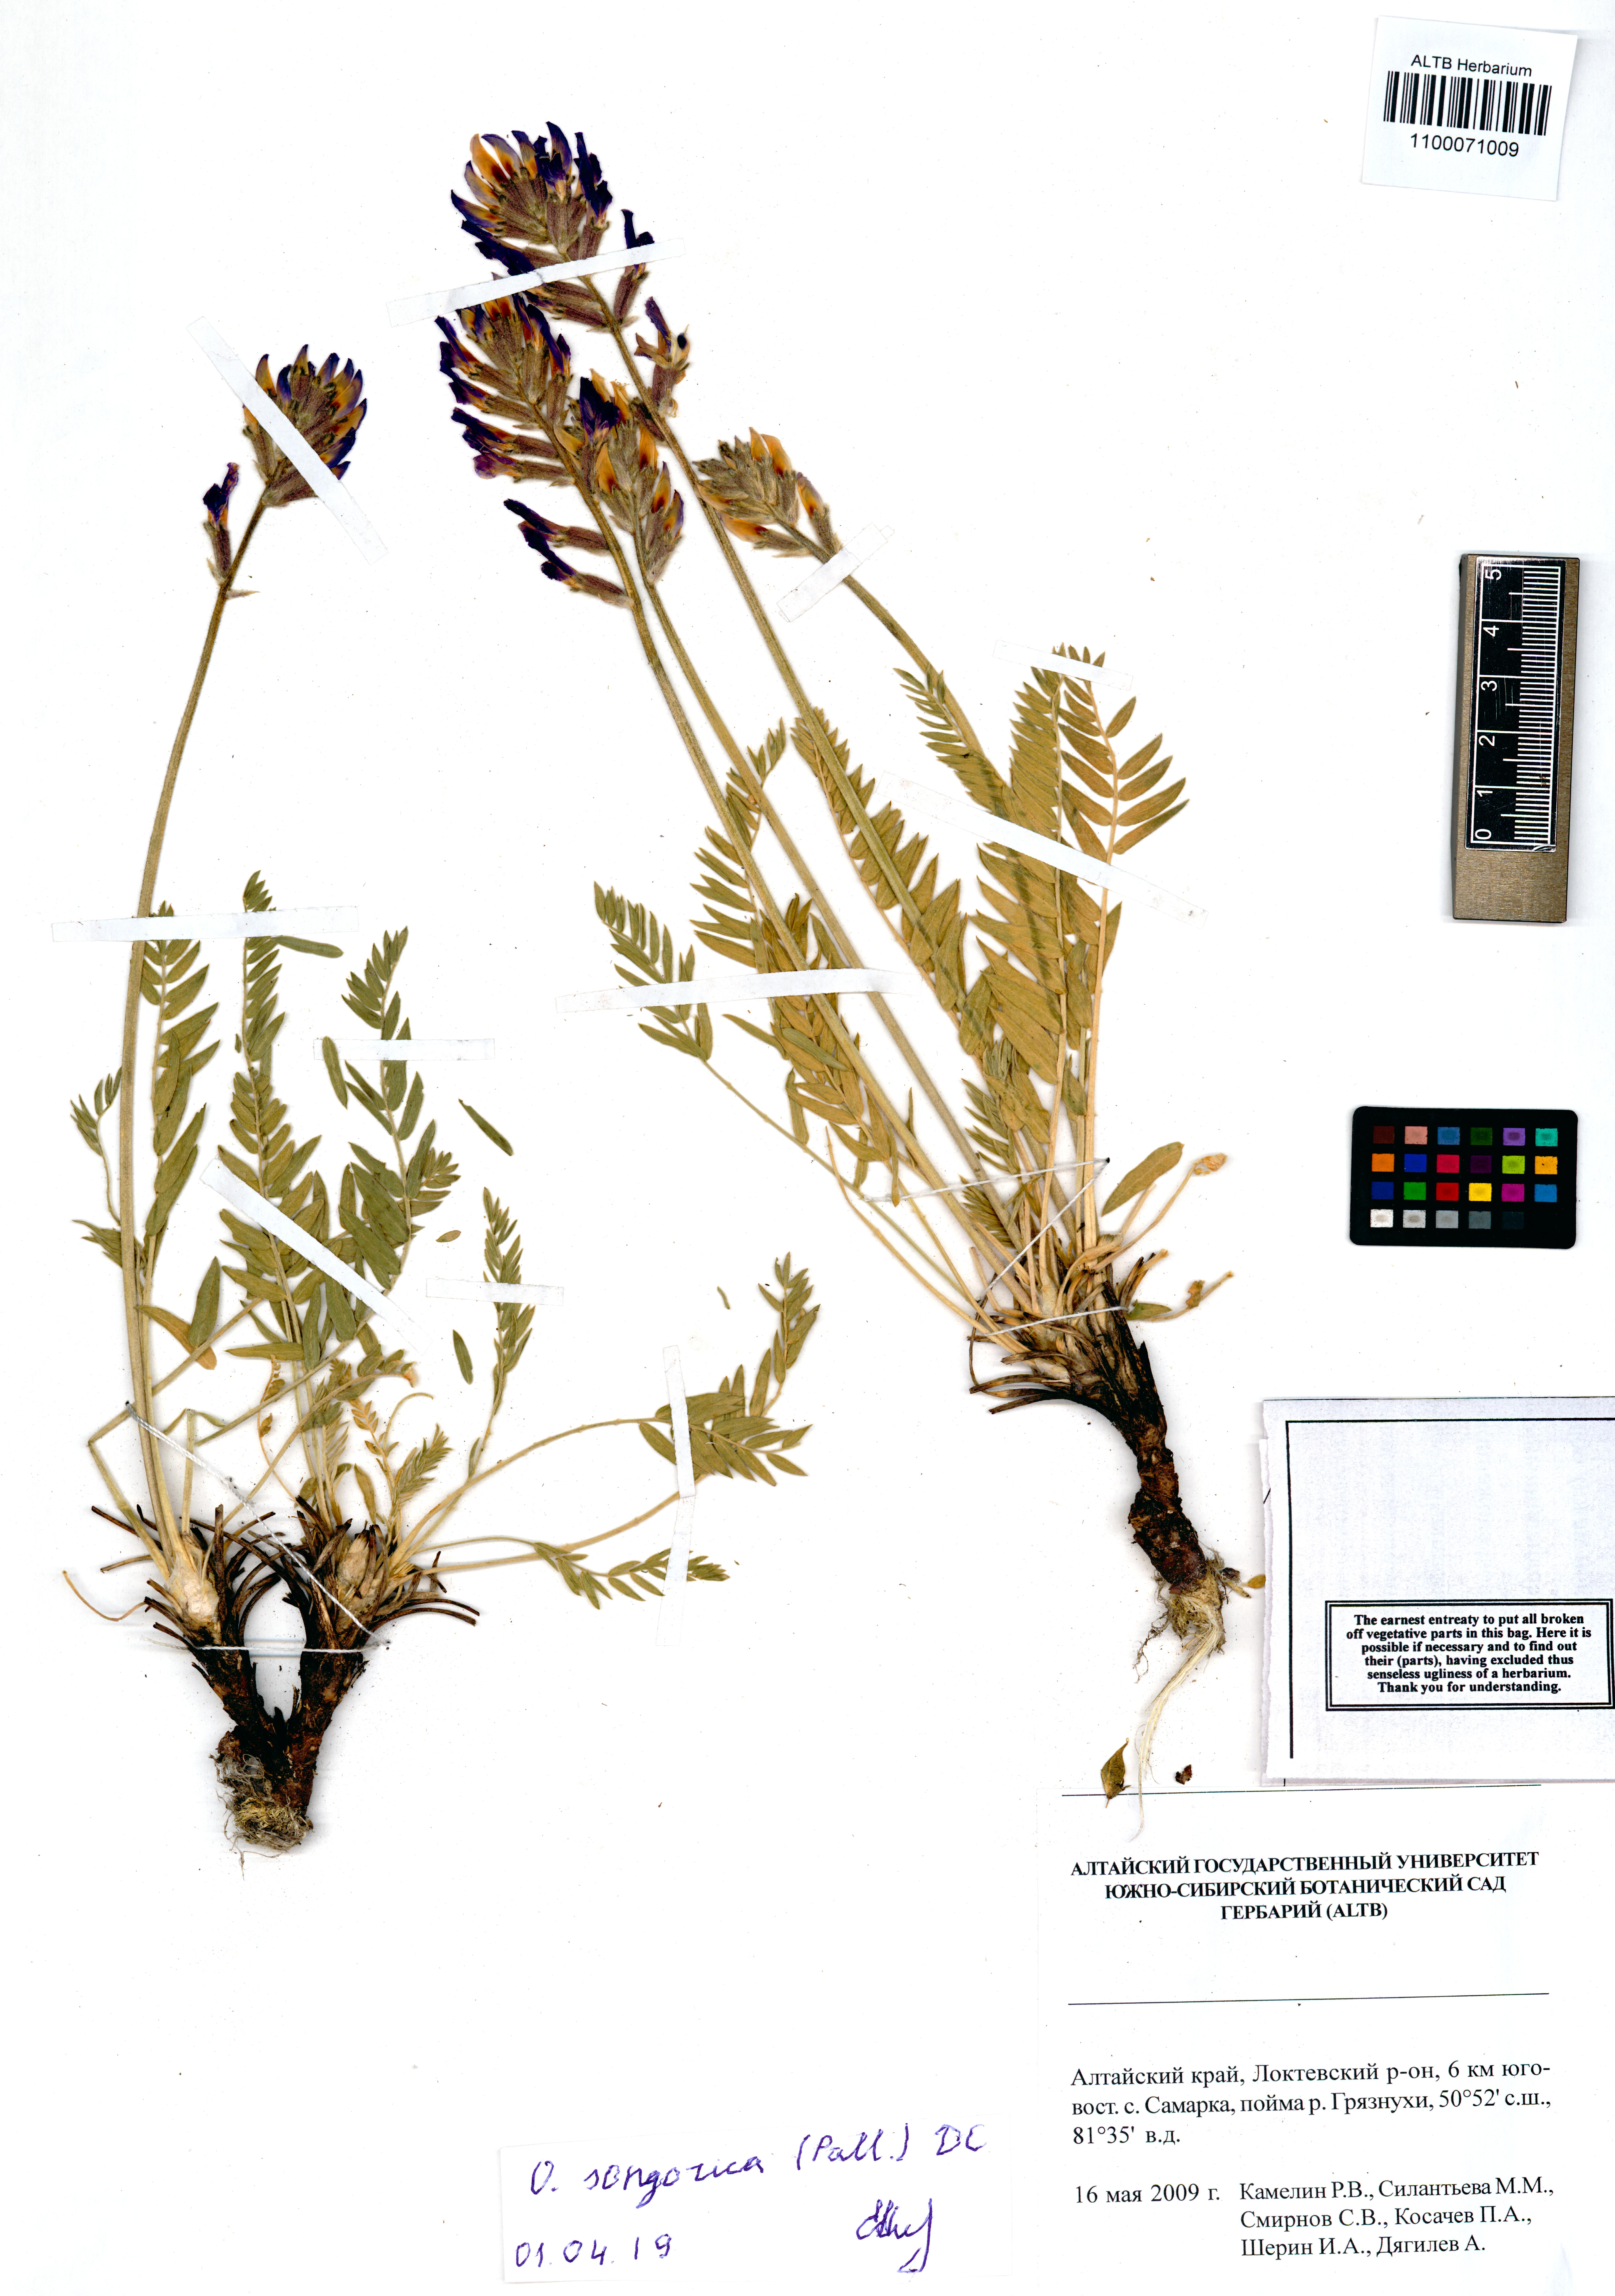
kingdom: Plantae
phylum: Tracheophyta
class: Magnoliopsida
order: Fabales
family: Fabaceae
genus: Oxytropis
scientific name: Oxytropis songarica
